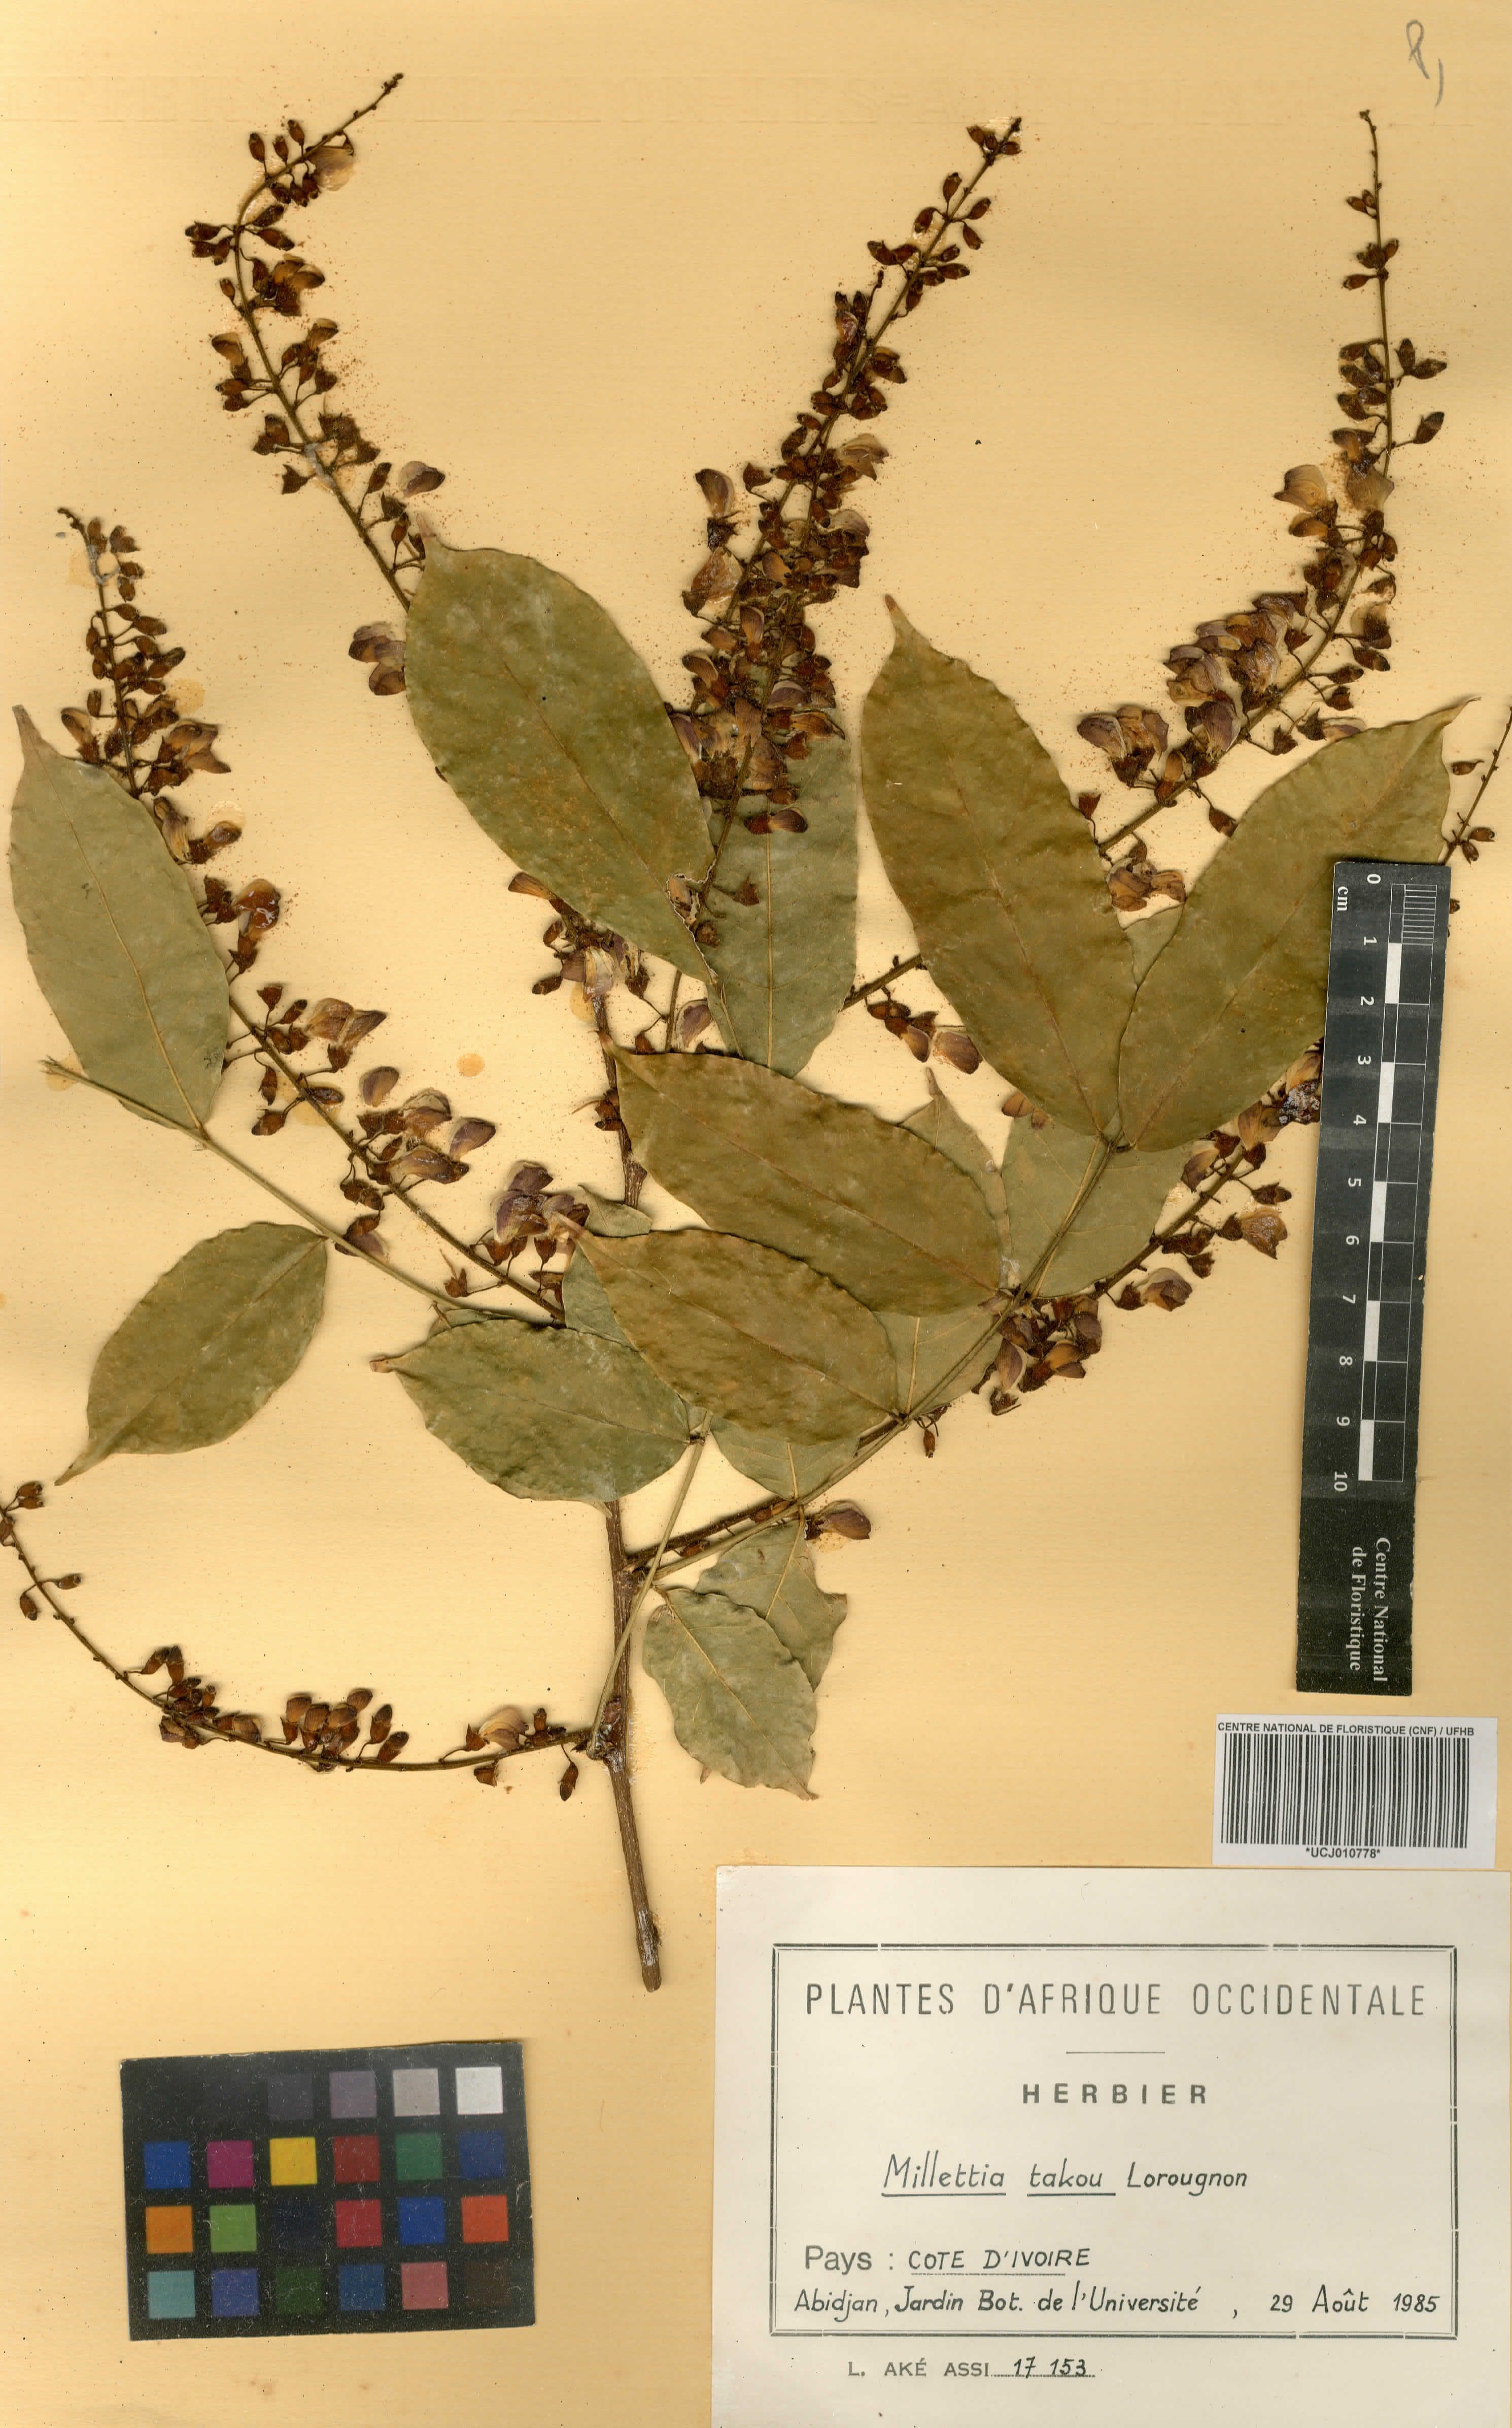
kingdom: Plantae
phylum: Tracheophyta
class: Magnoliopsida
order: Fabales
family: Fabaceae
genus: Millettia
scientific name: Millettia takou
